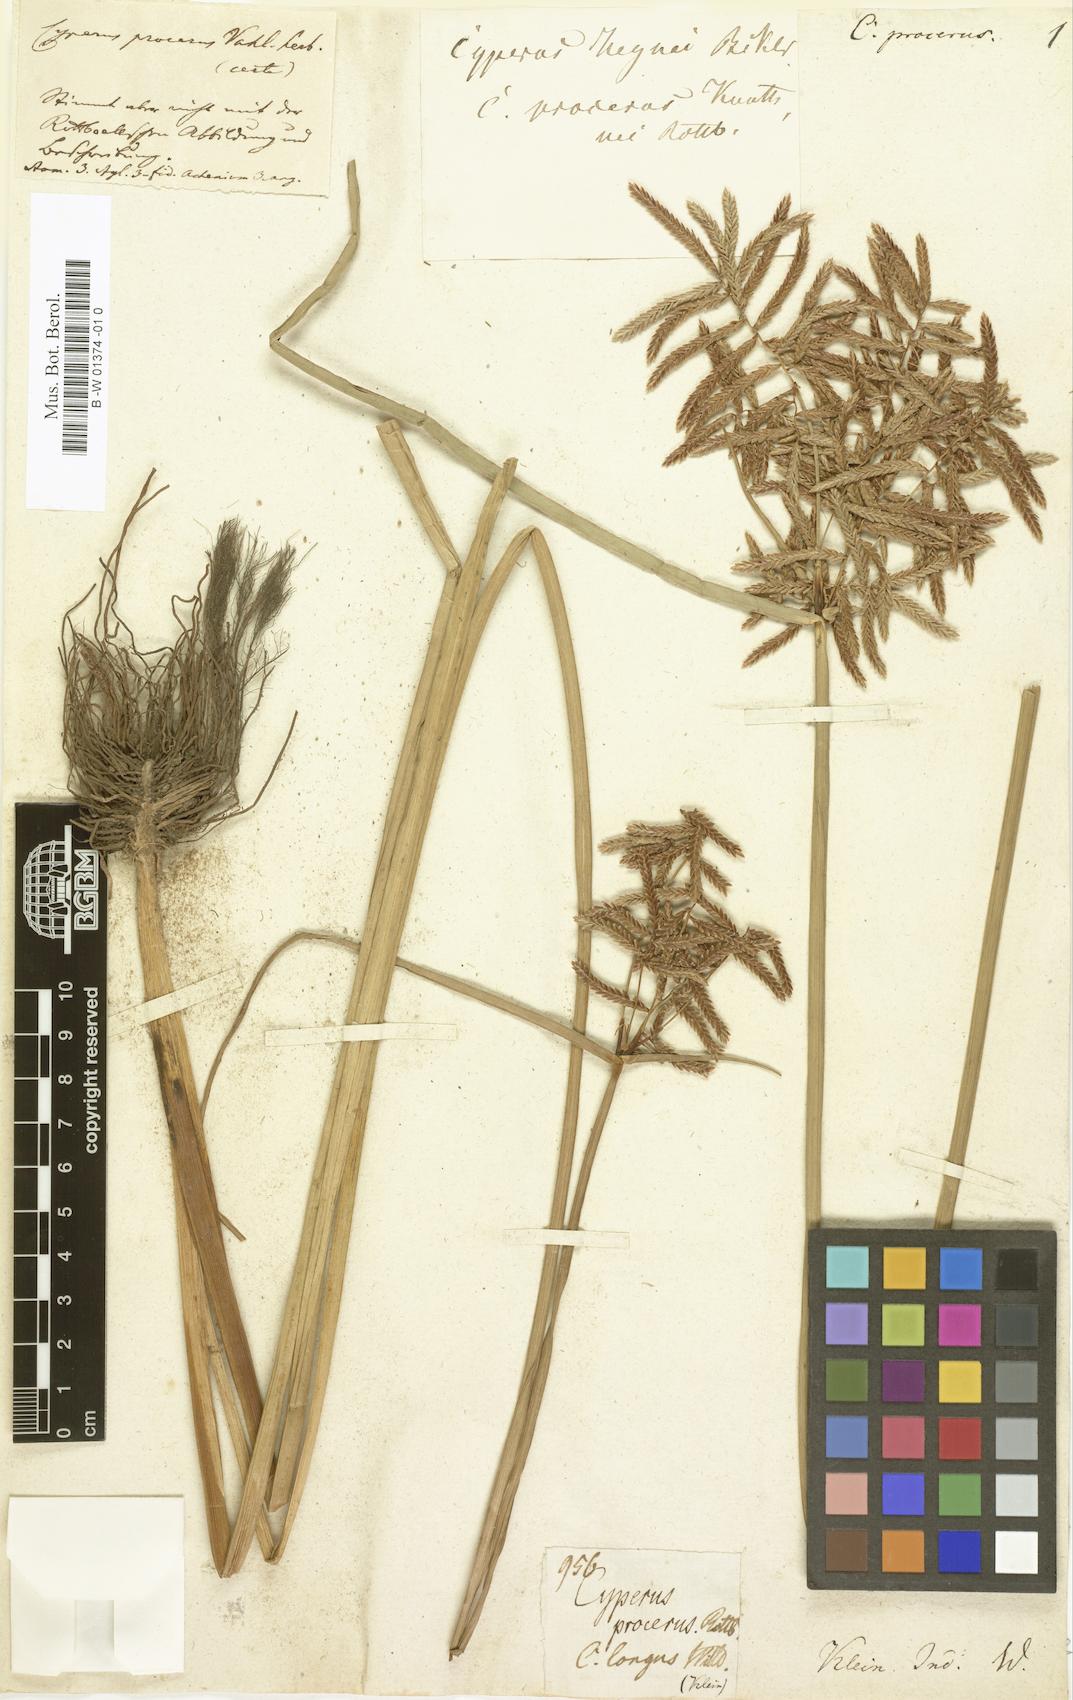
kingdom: Plantae
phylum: Tracheophyta
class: Liliopsida
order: Poales
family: Cyperaceae
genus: Cyperus
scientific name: Cyperus procerus
